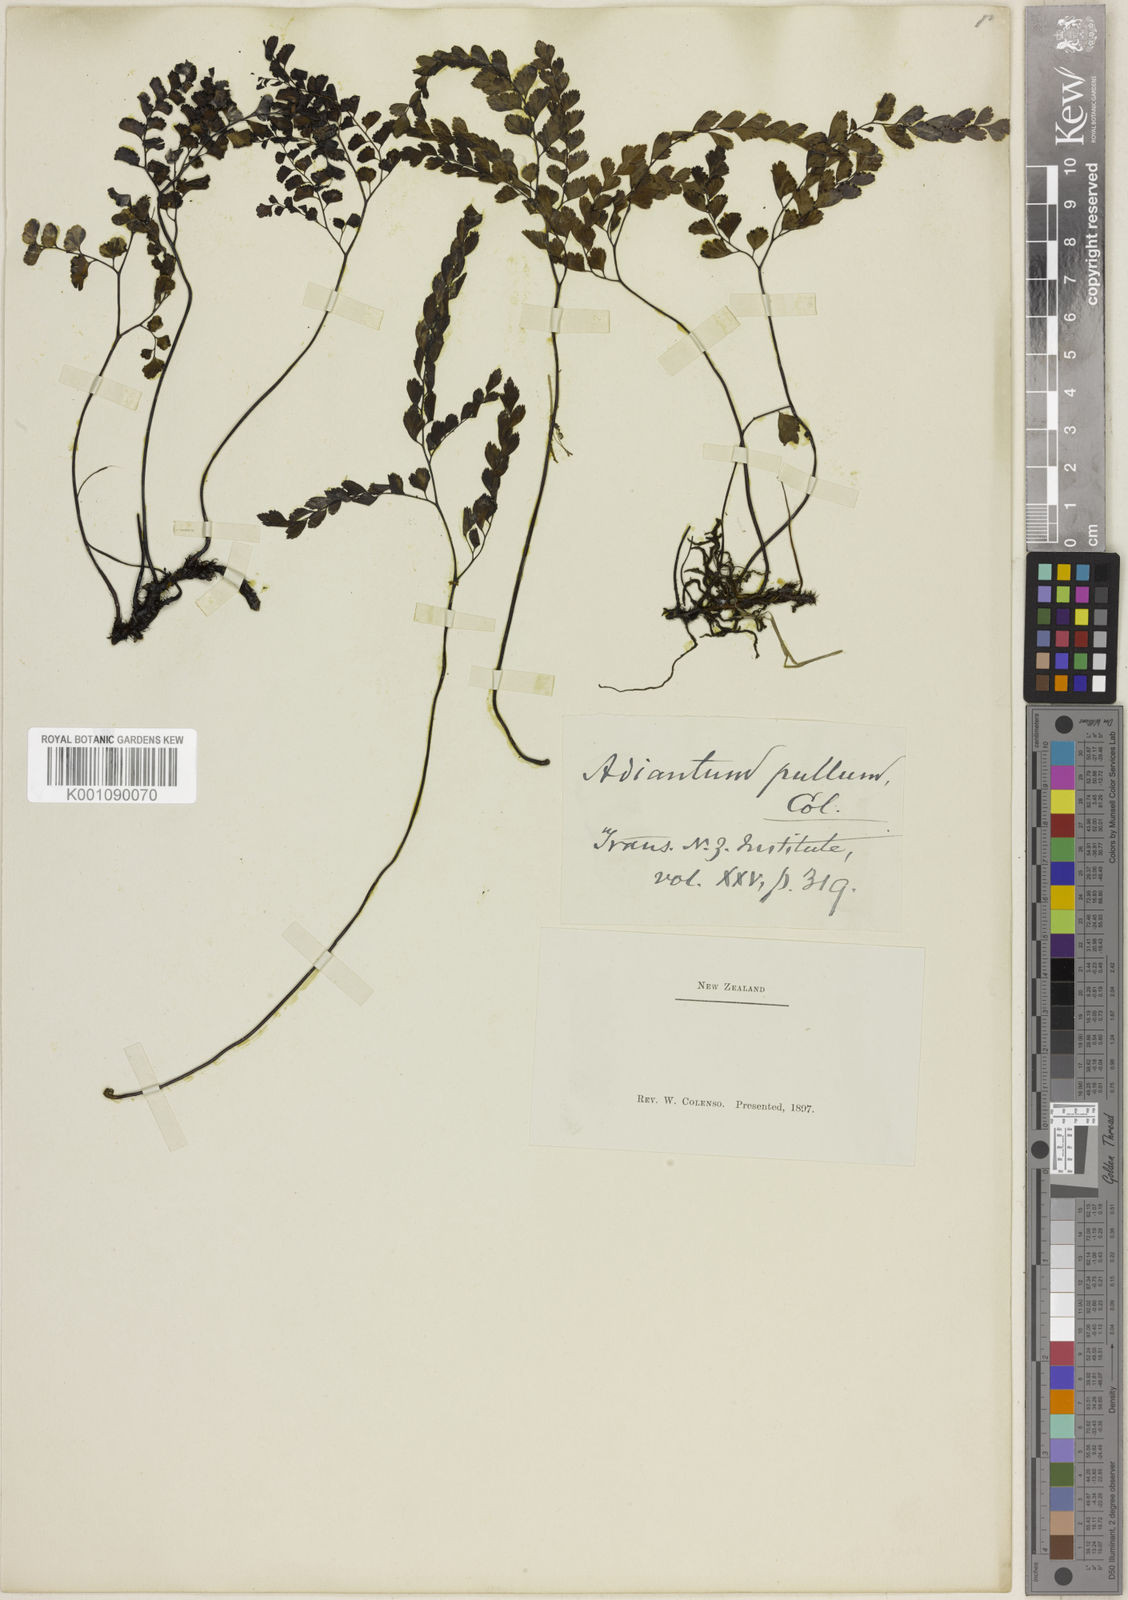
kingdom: Plantae
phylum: Tracheophyta
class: Polypodiopsida
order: Polypodiales
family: Pteridaceae
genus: Adiantum
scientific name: Adiantum cunninghamii
